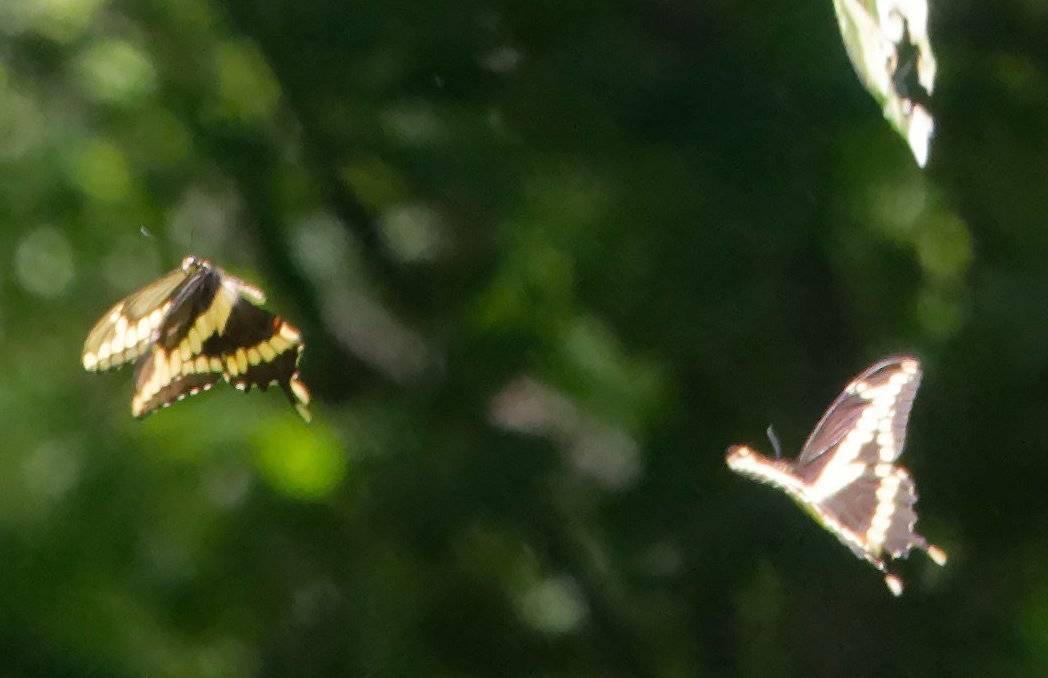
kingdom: Animalia
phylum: Arthropoda
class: Insecta
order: Lepidoptera
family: Papilionidae
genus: Papilio
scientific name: Papilio cresphontes
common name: Eastern Giant Swallowtail
